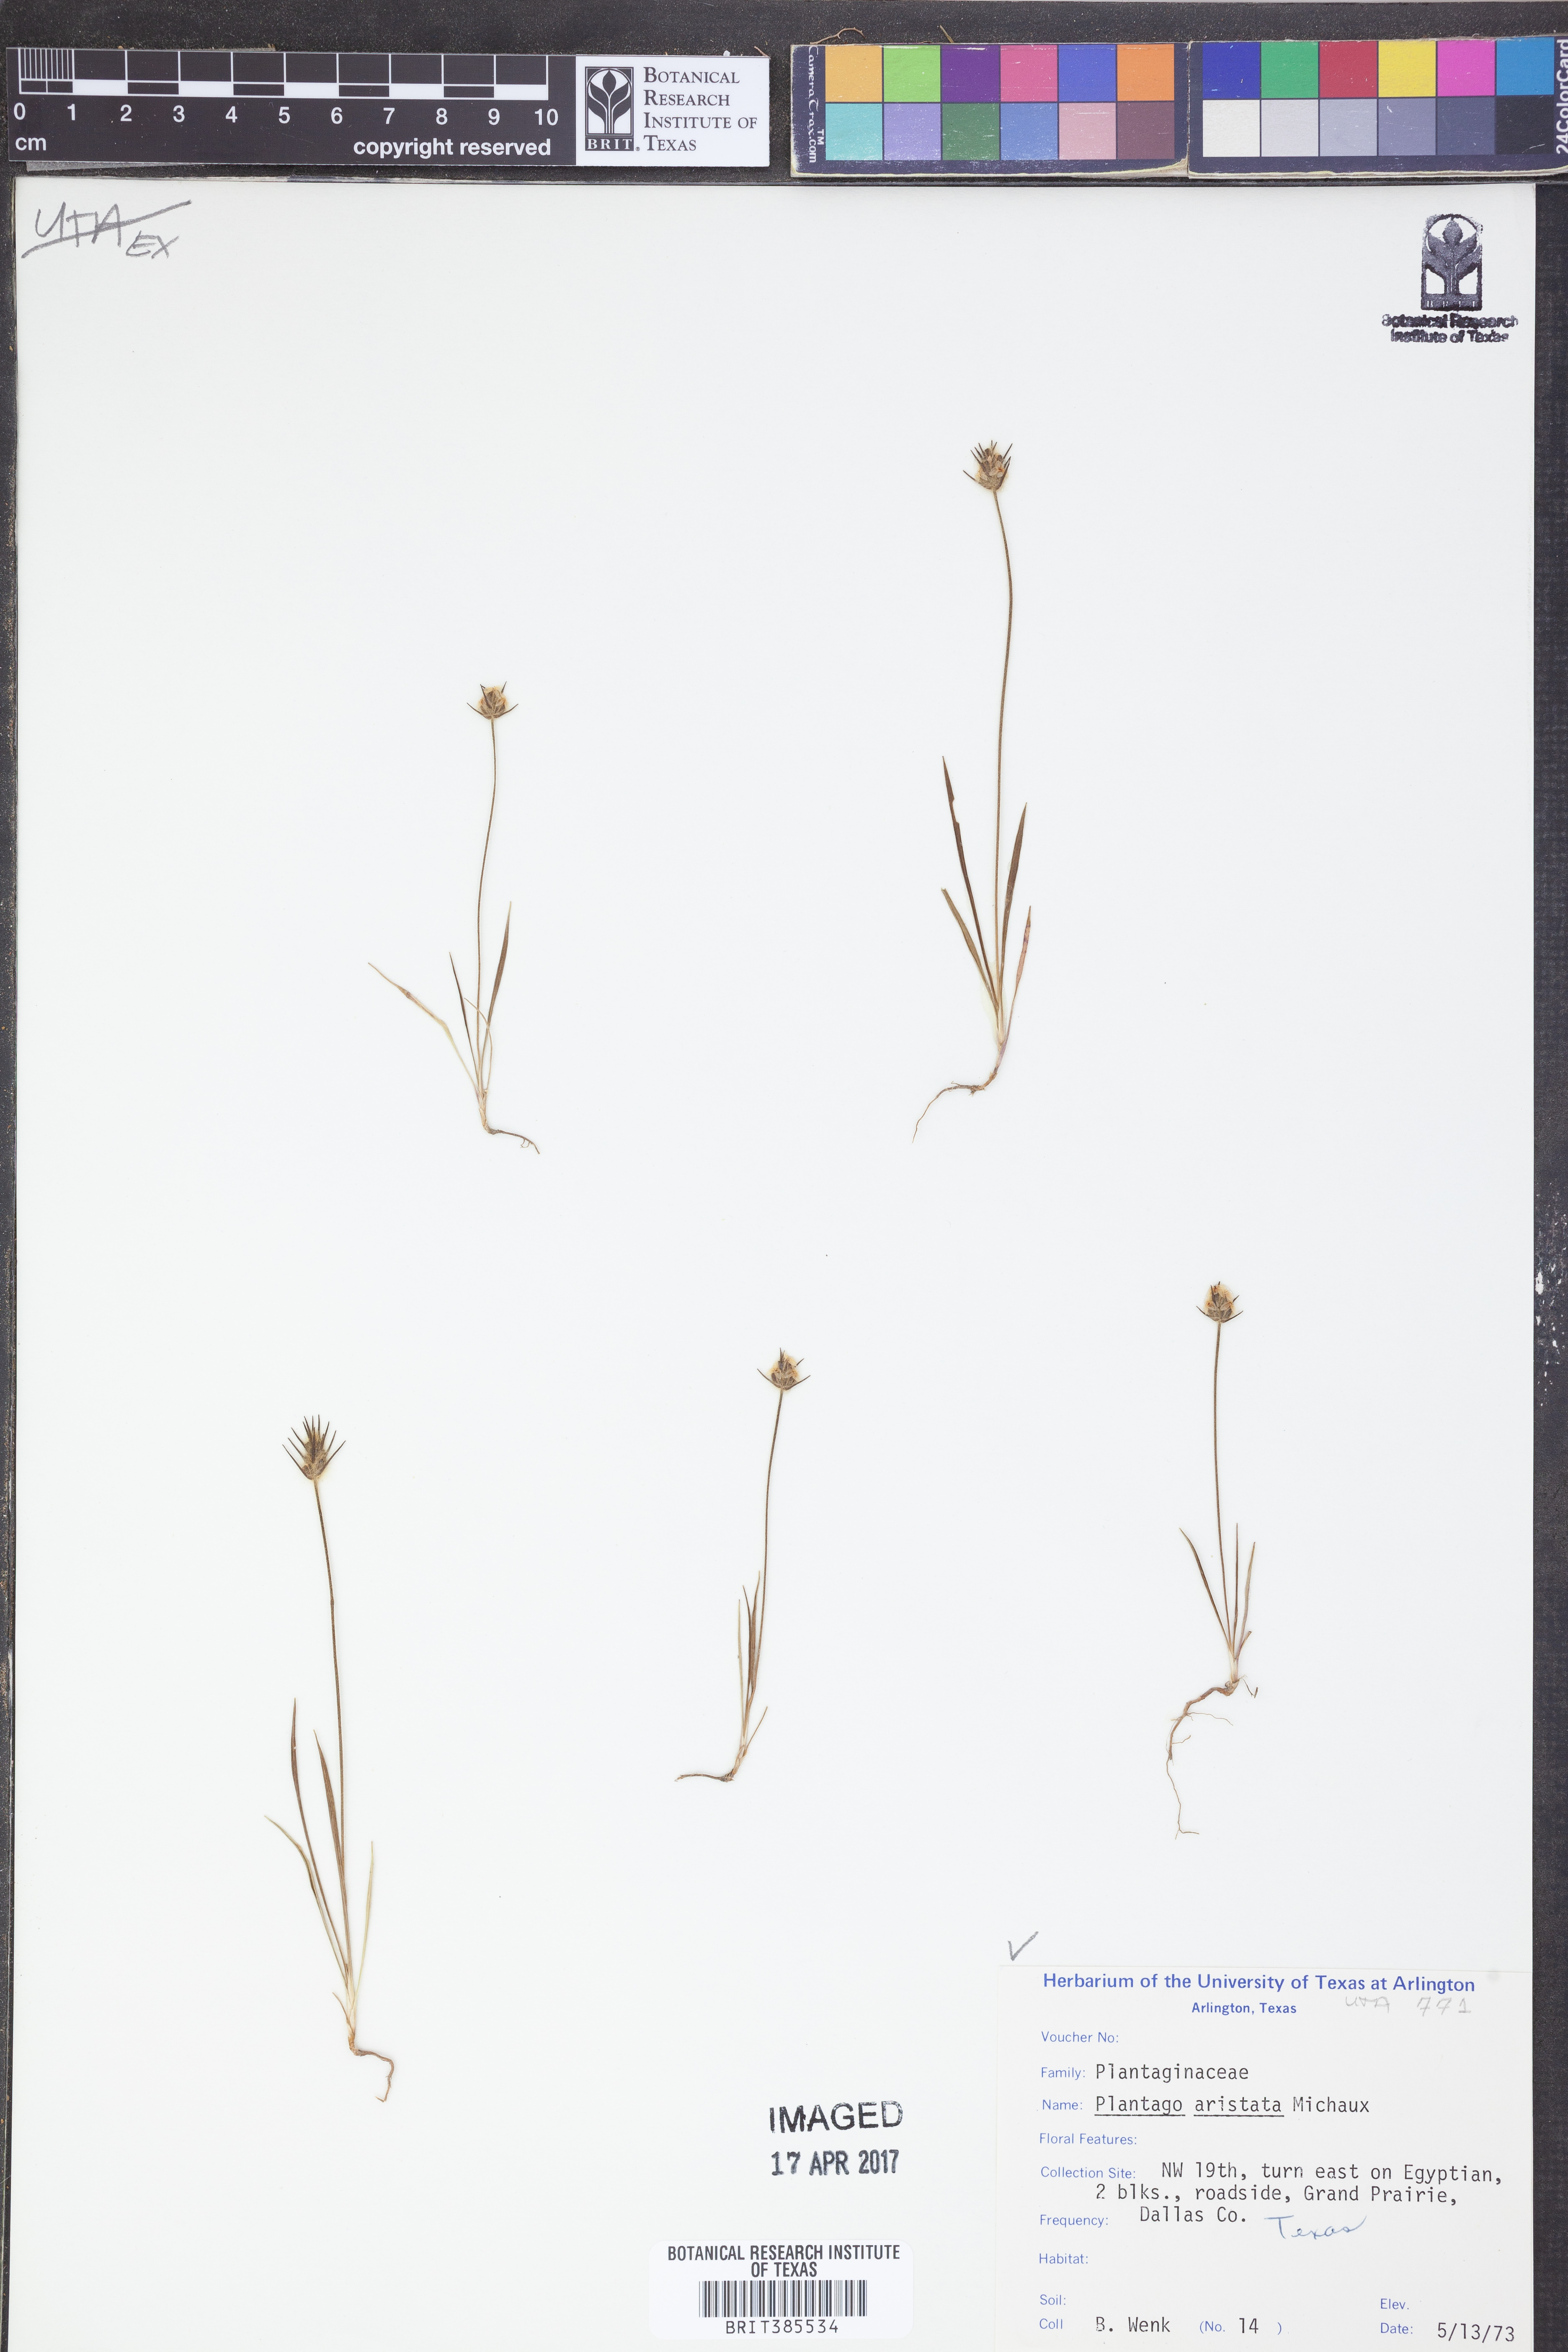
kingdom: Plantae
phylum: Tracheophyta
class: Magnoliopsida
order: Lamiales
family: Plantaginaceae
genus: Plantago
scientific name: Plantago aristata
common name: Bracted plantain
